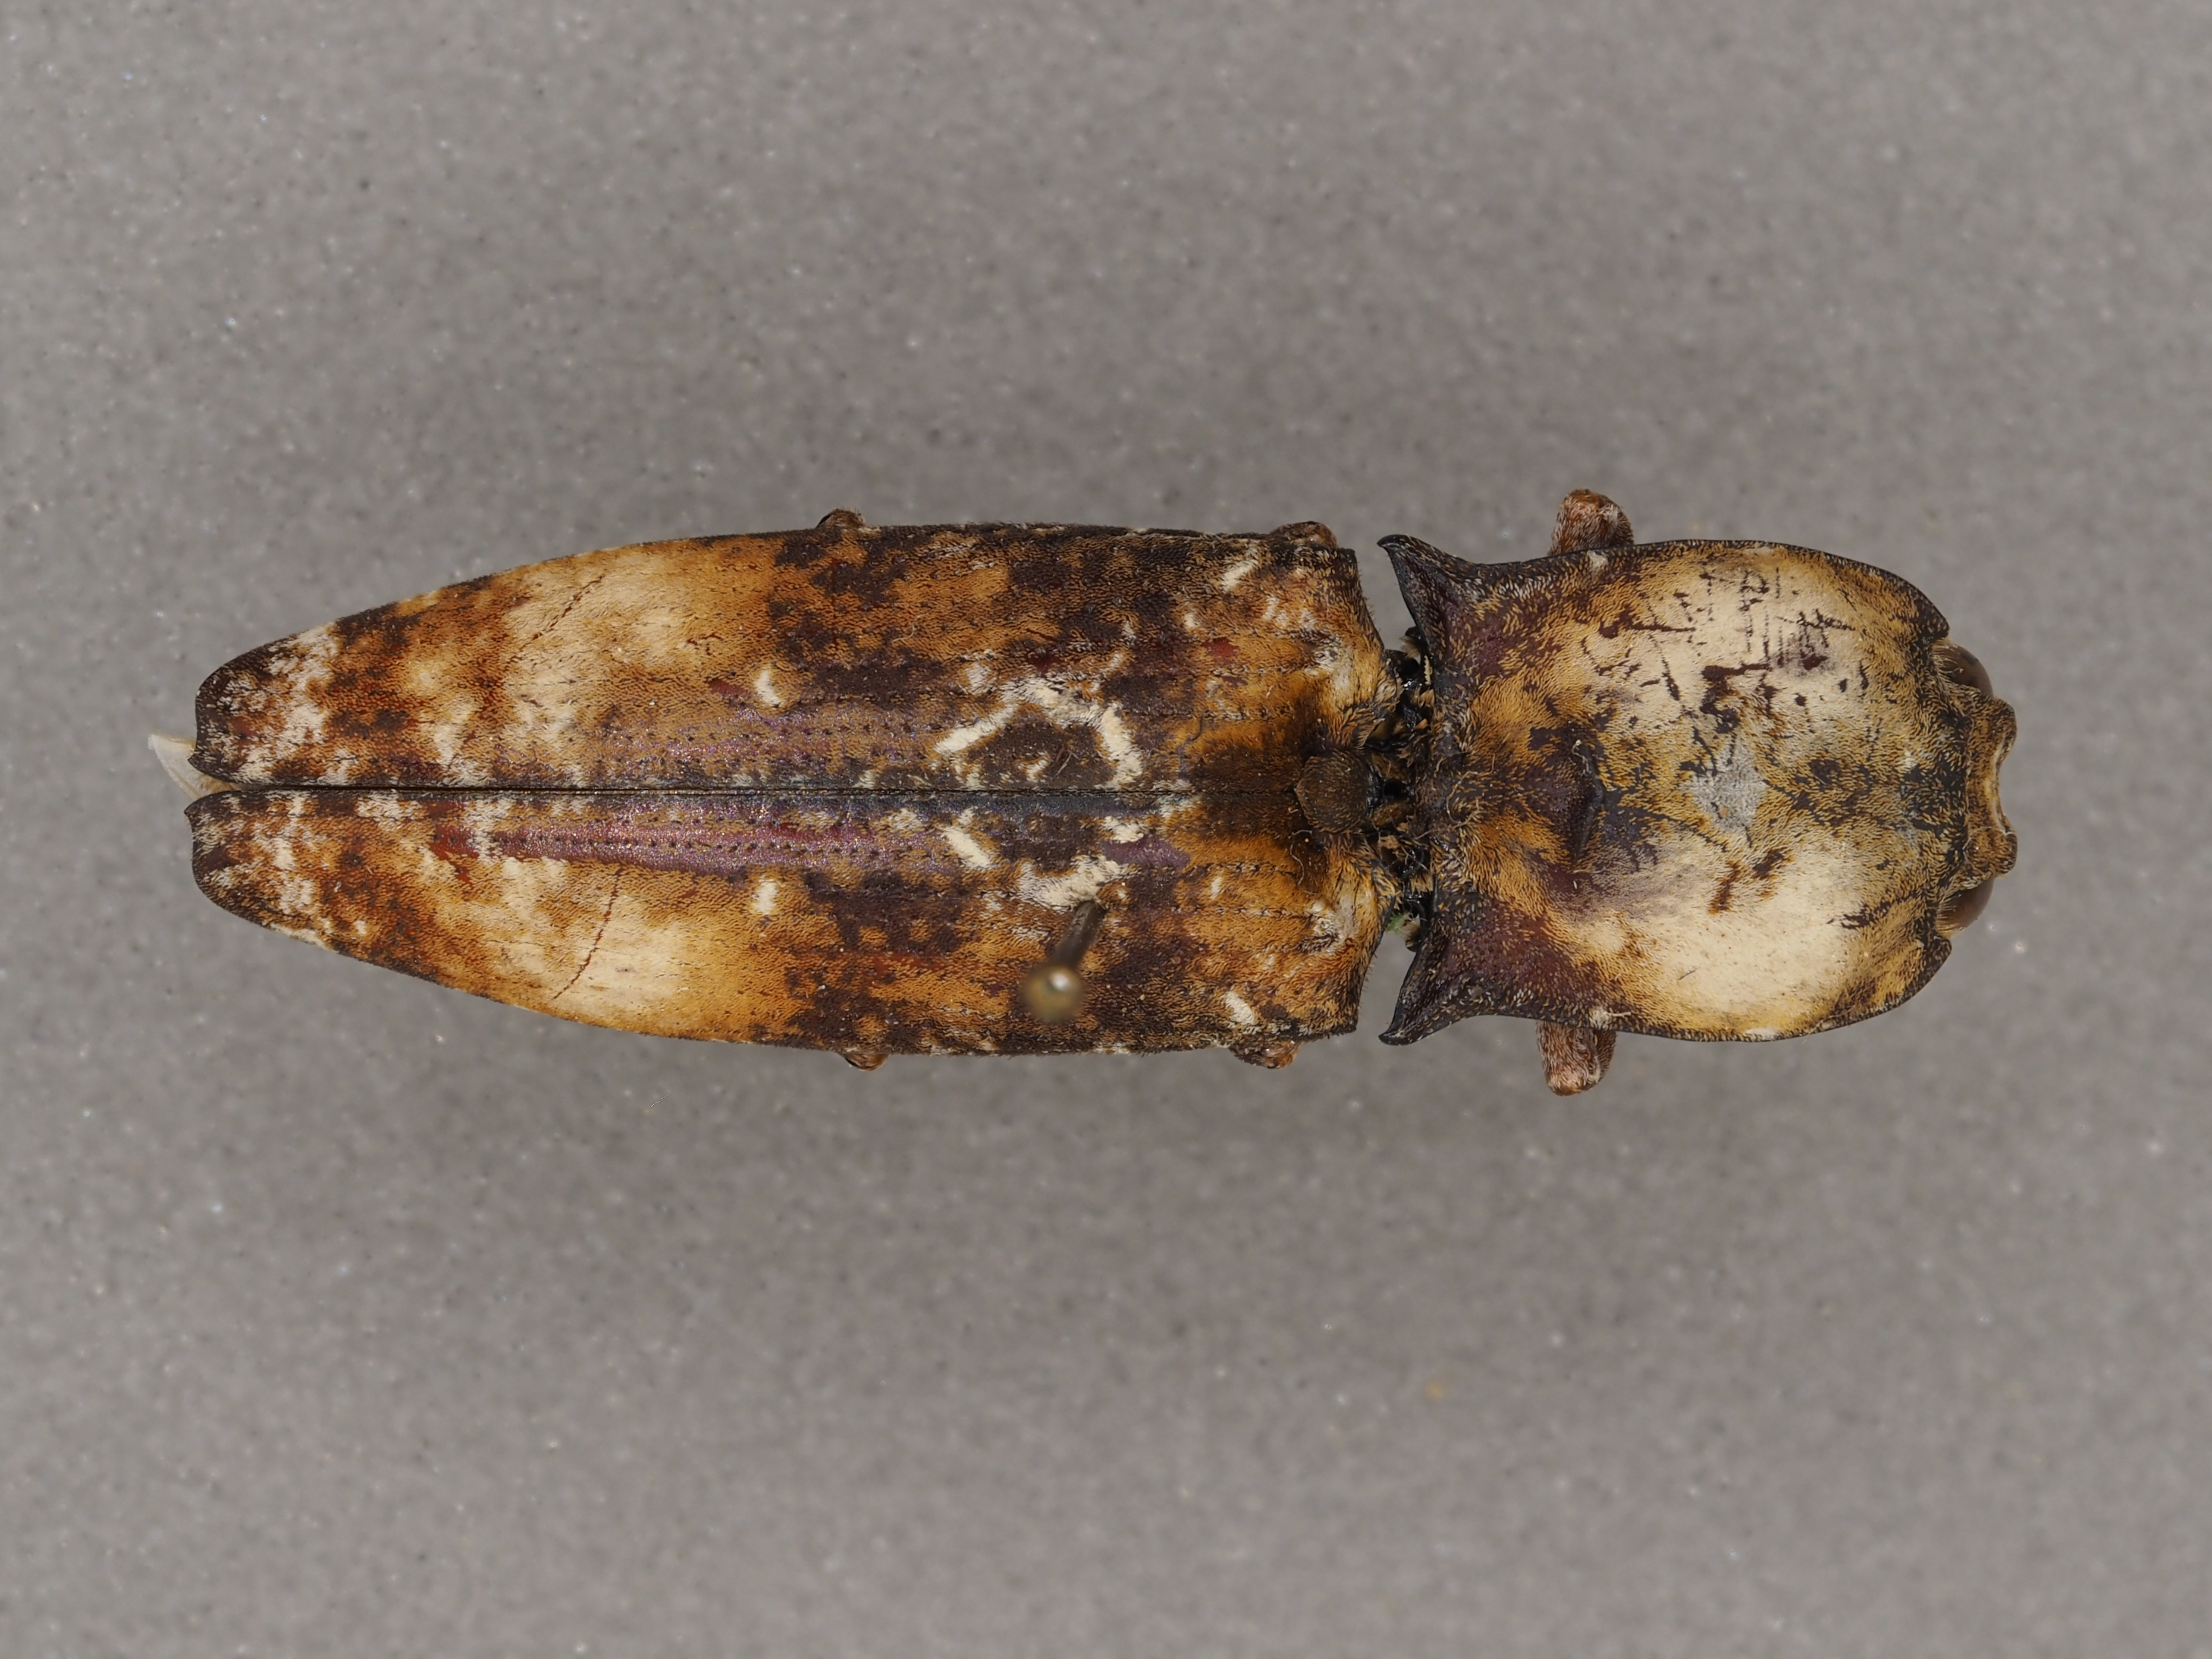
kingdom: Animalia
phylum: Arthropoda
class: Insecta
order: Coleoptera
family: Elateridae
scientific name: Elateridae
